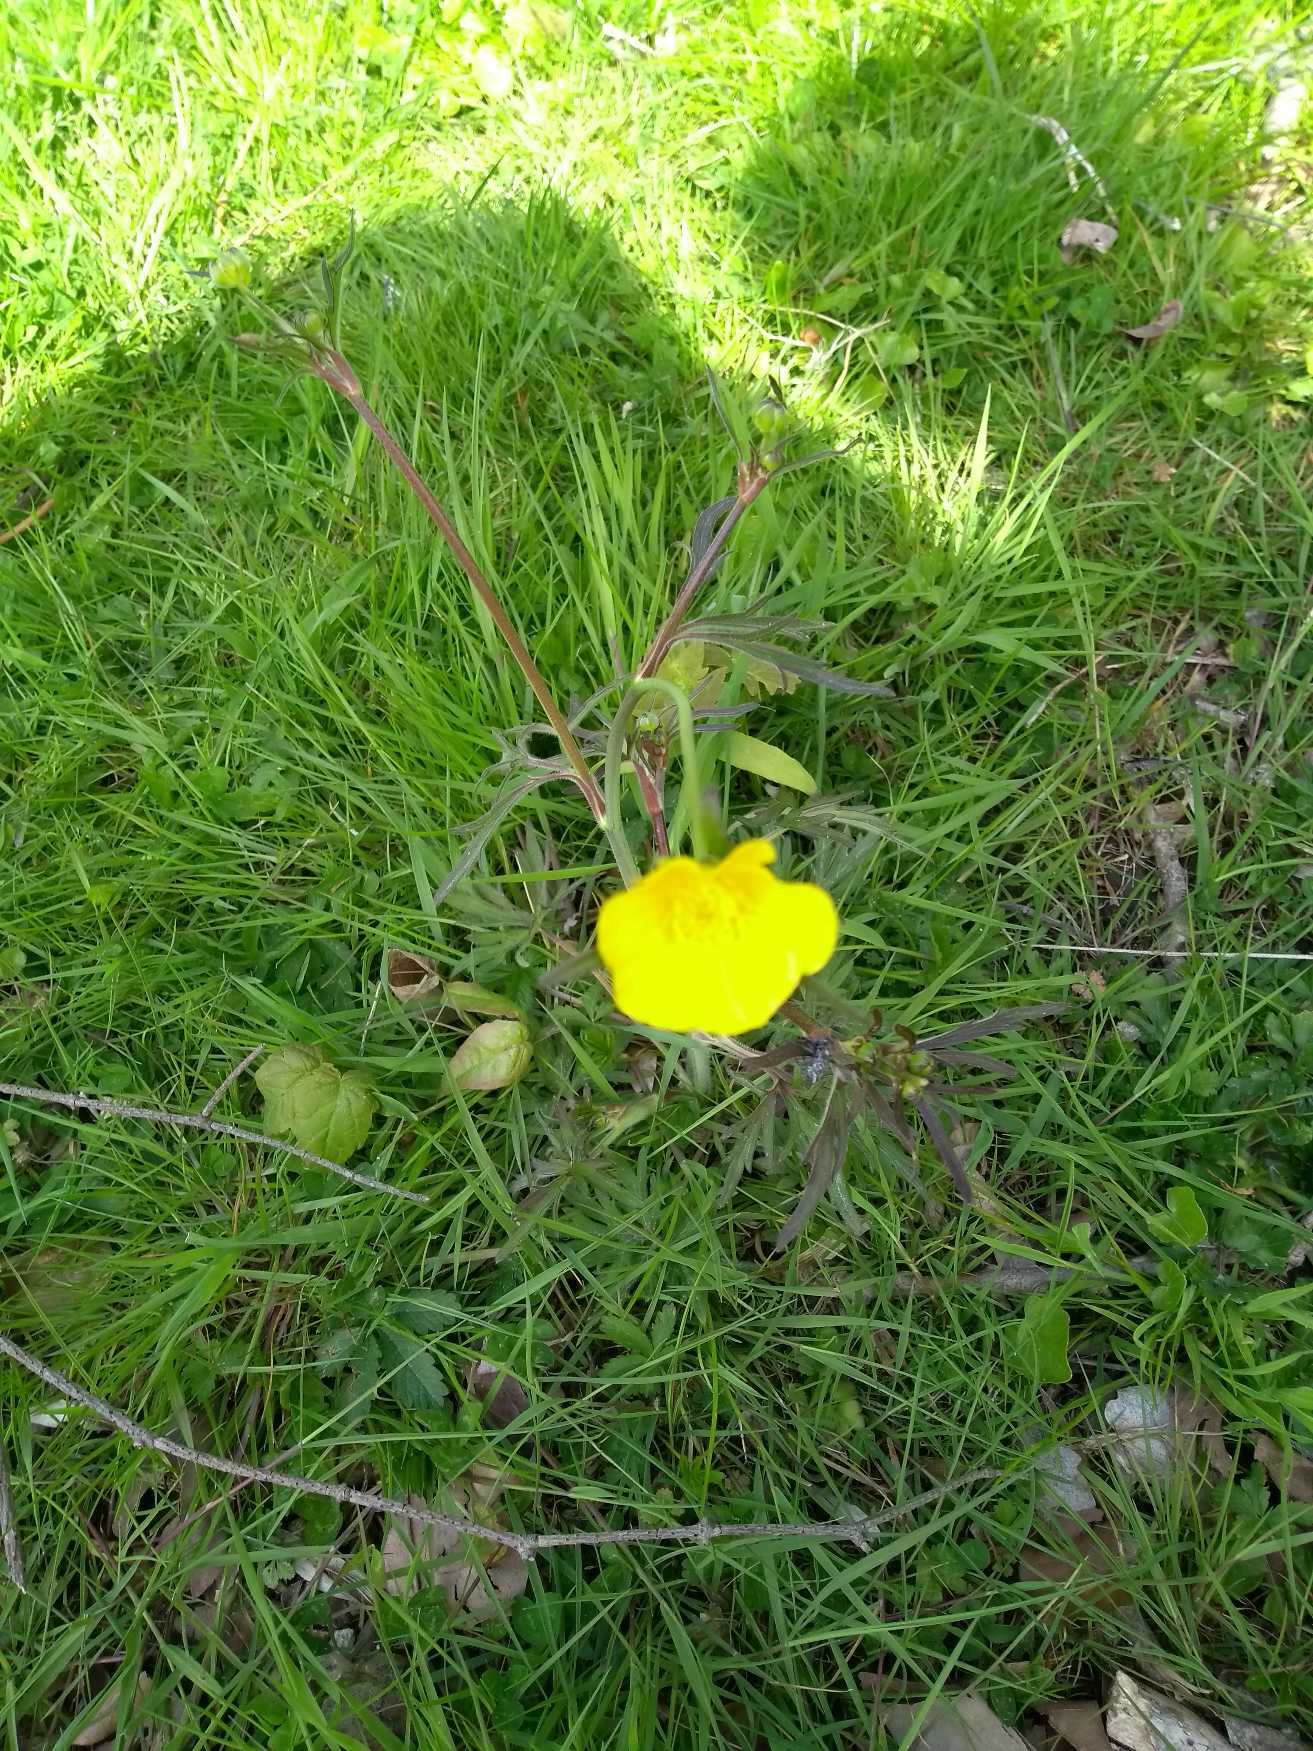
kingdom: Plantae
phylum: Tracheophyta
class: Magnoliopsida
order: Ranunculales
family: Ranunculaceae
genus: Ranunculus
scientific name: Ranunculus acris
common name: Bidende ranunkel
